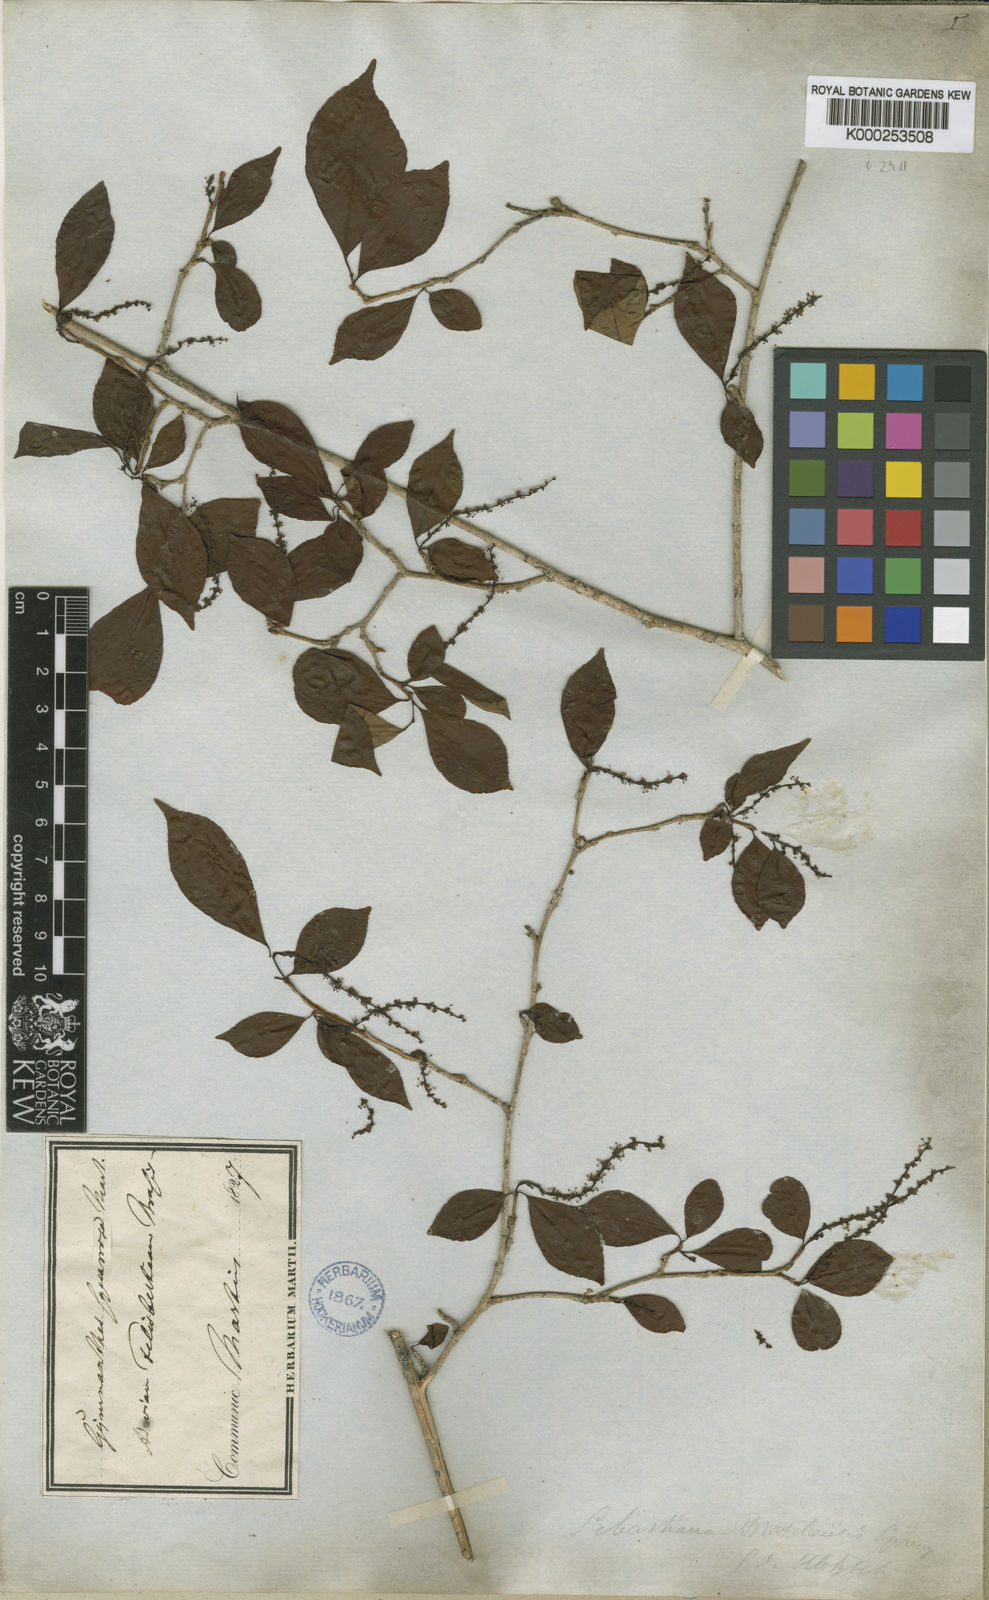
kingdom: Plantae
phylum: Tracheophyta
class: Magnoliopsida
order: Malpighiales
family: Euphorbiaceae
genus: Sebastiania
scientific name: Sebastiania brasiliensis
